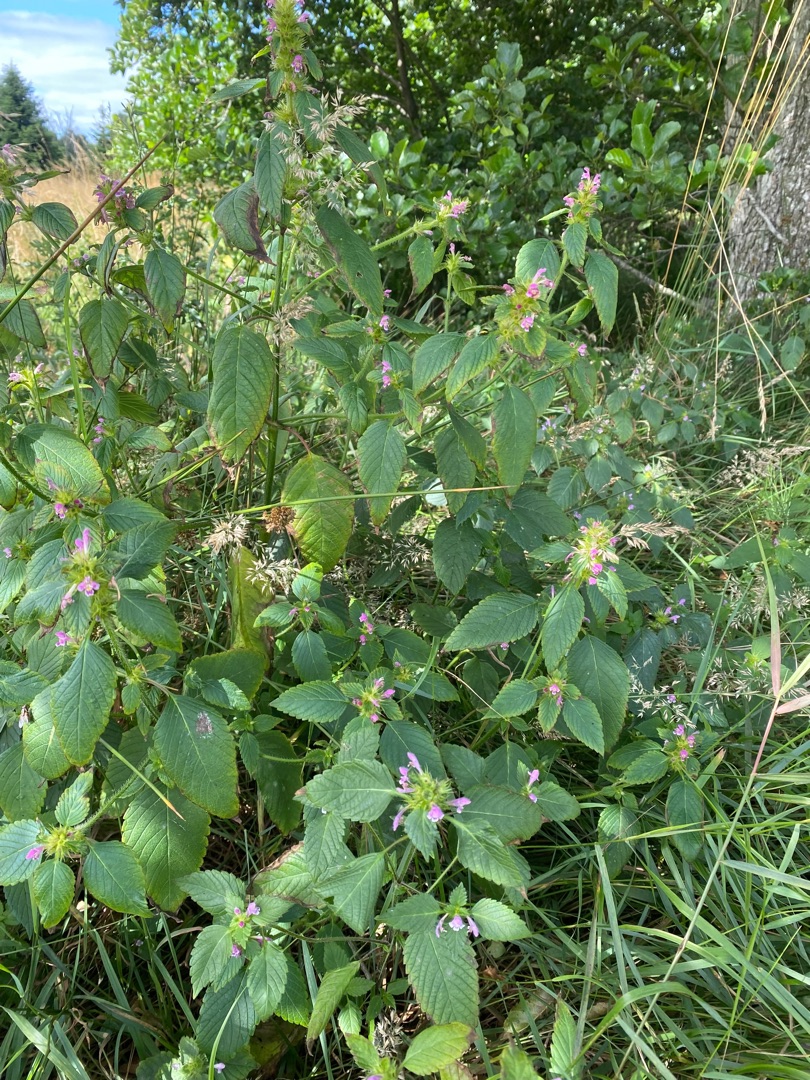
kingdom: Plantae
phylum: Tracheophyta
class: Magnoliopsida
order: Lamiales
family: Lamiaceae
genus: Galeopsis
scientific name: Galeopsis bifida
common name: Skov-hanekro
